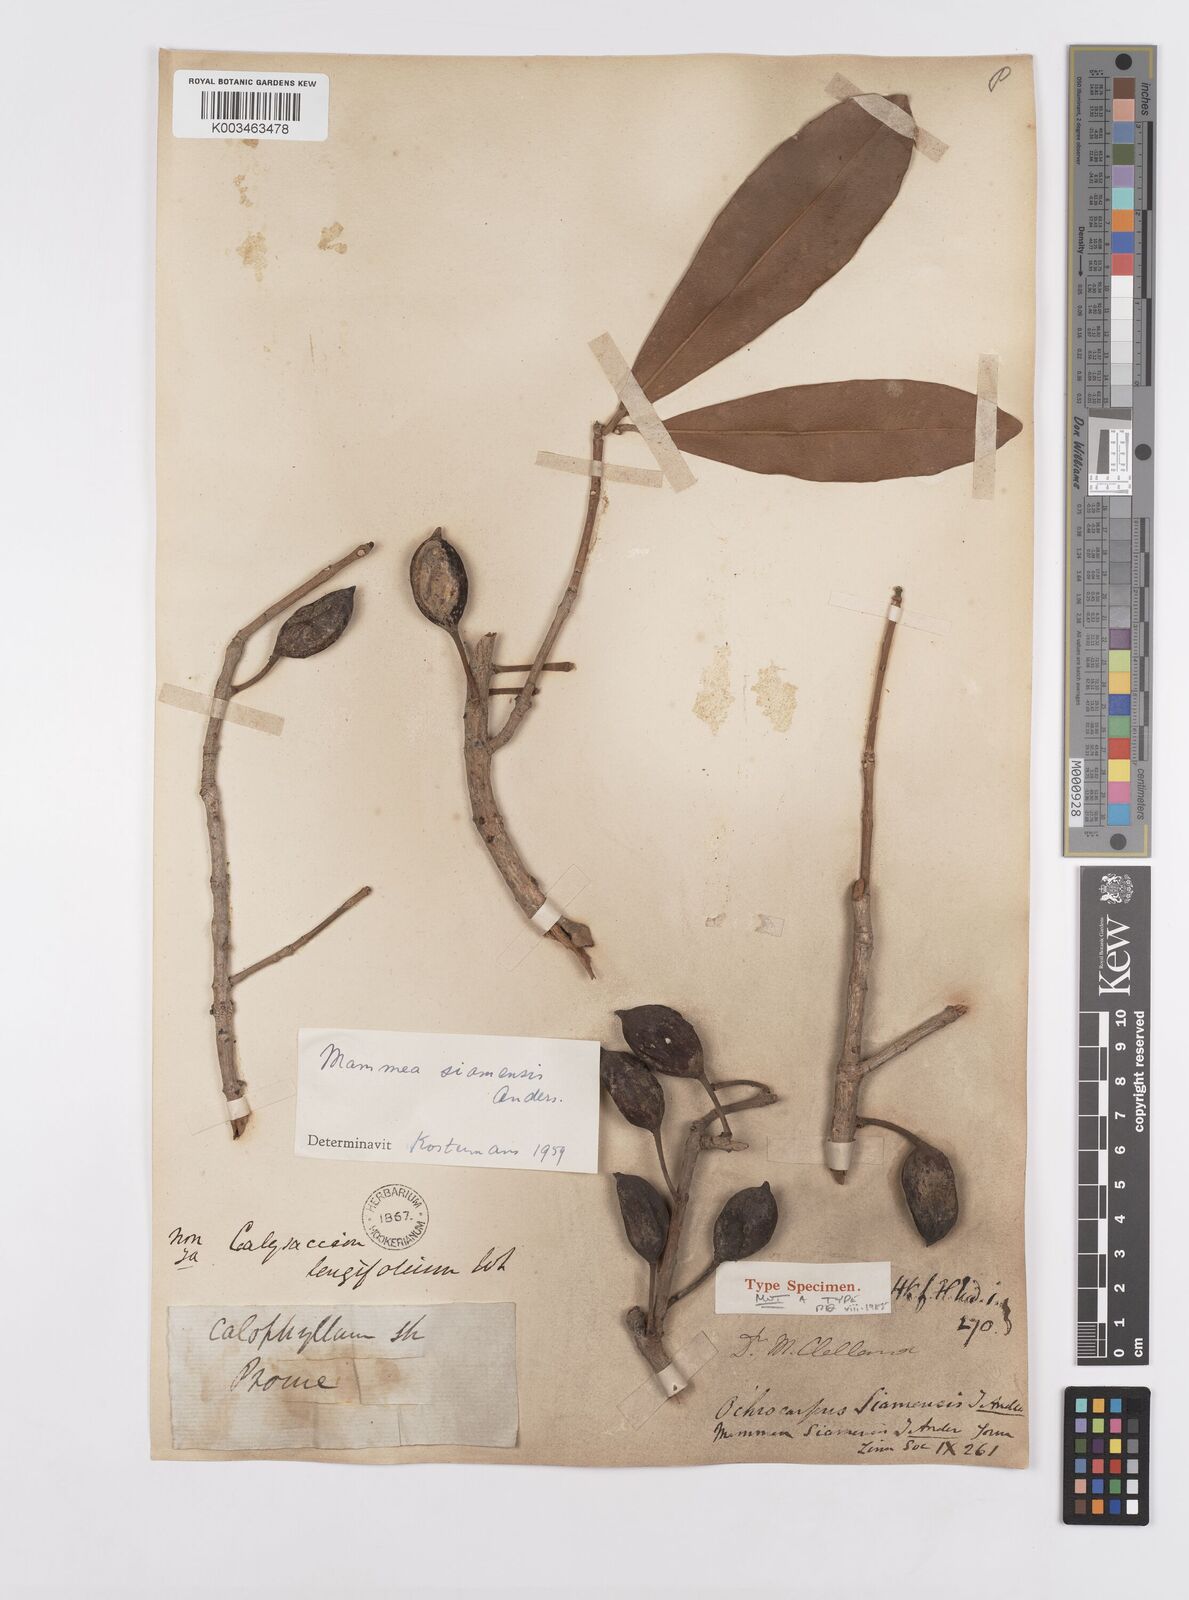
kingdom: Plantae
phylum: Tracheophyta
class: Magnoliopsida
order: Malpighiales
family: Calophyllaceae
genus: Mammea
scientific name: Mammea siamensis
